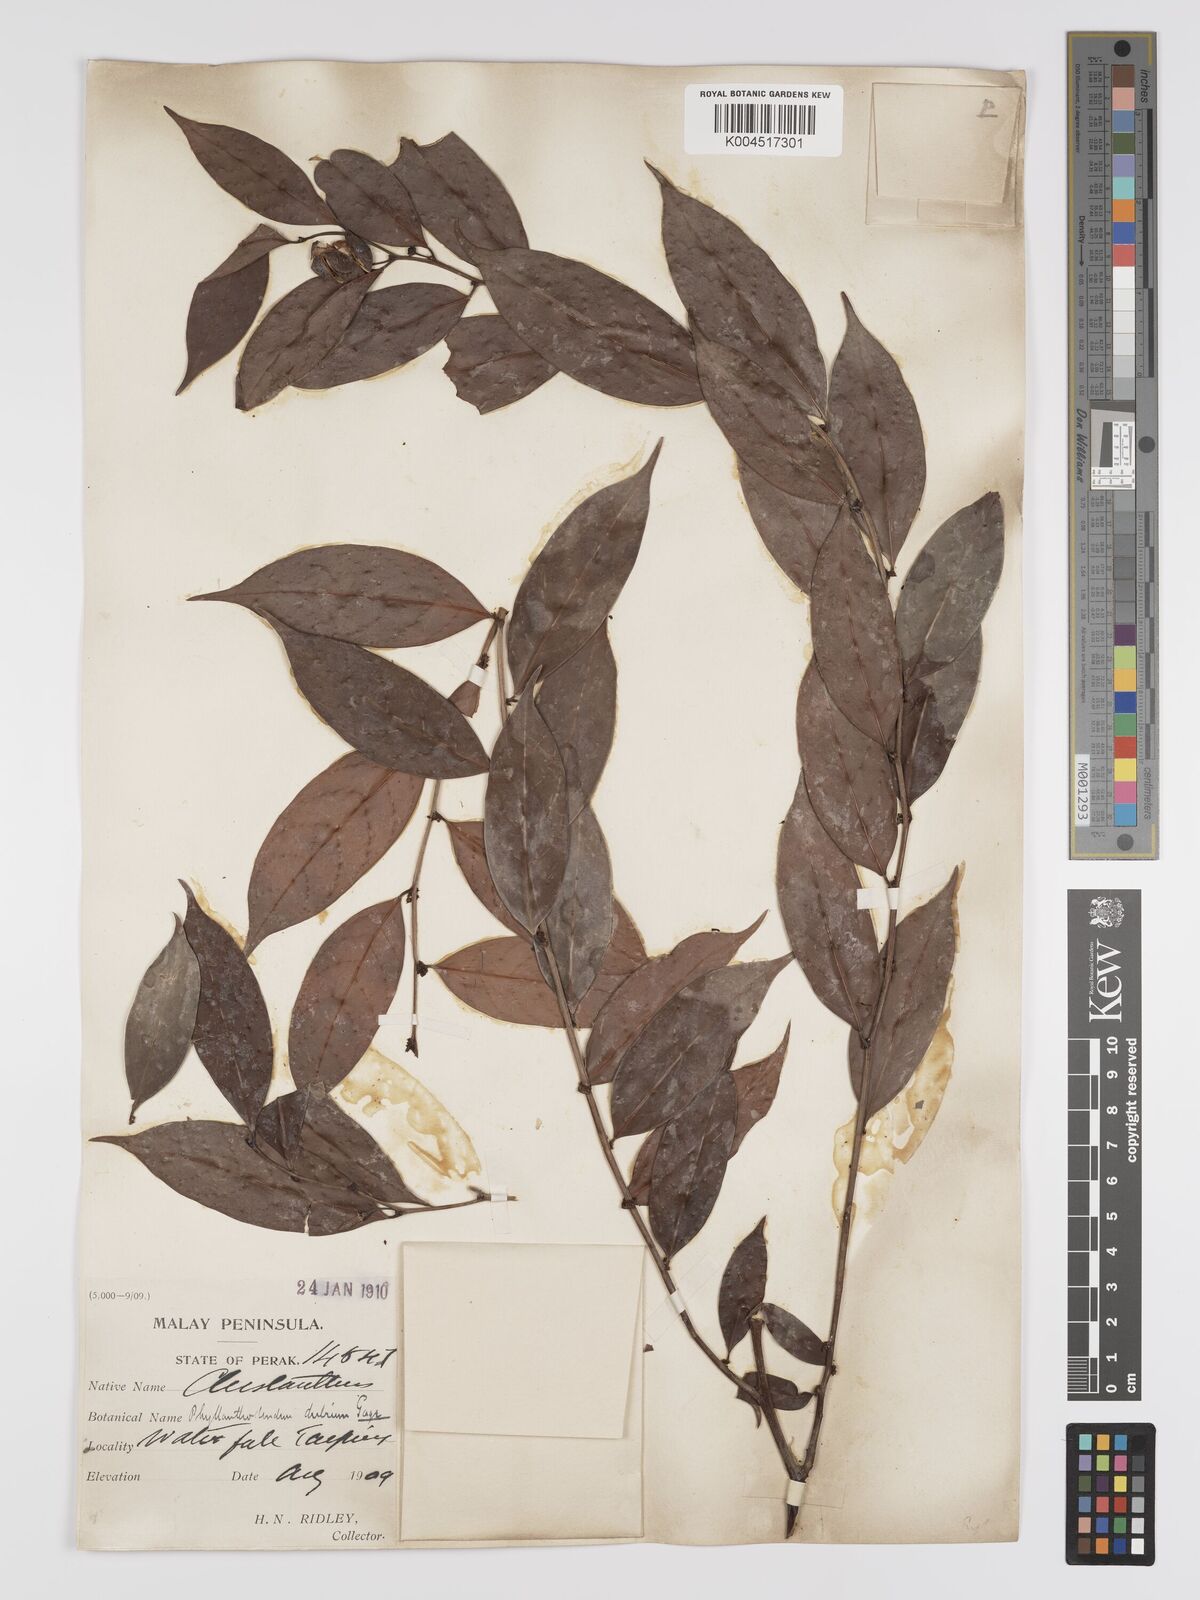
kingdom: Plantae
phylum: Tracheophyta
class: Magnoliopsida
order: Malpighiales
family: Phyllanthaceae
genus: Phyllanthus
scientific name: Phyllanthus roseus
